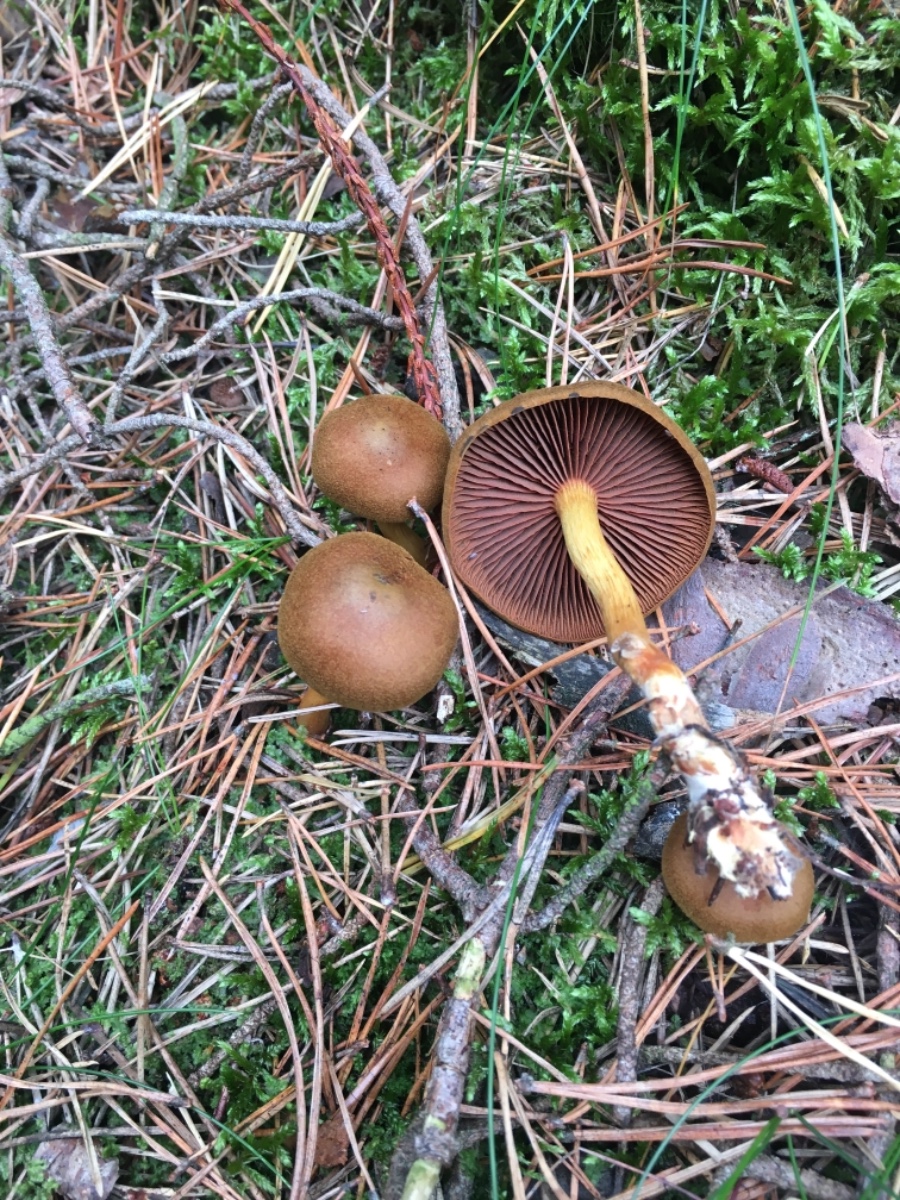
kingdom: Fungi
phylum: Basidiomycota
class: Agaricomycetes
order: Agaricales
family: Cortinariaceae
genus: Cortinarius
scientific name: Cortinarius
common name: cinnoberbladet slørhat
